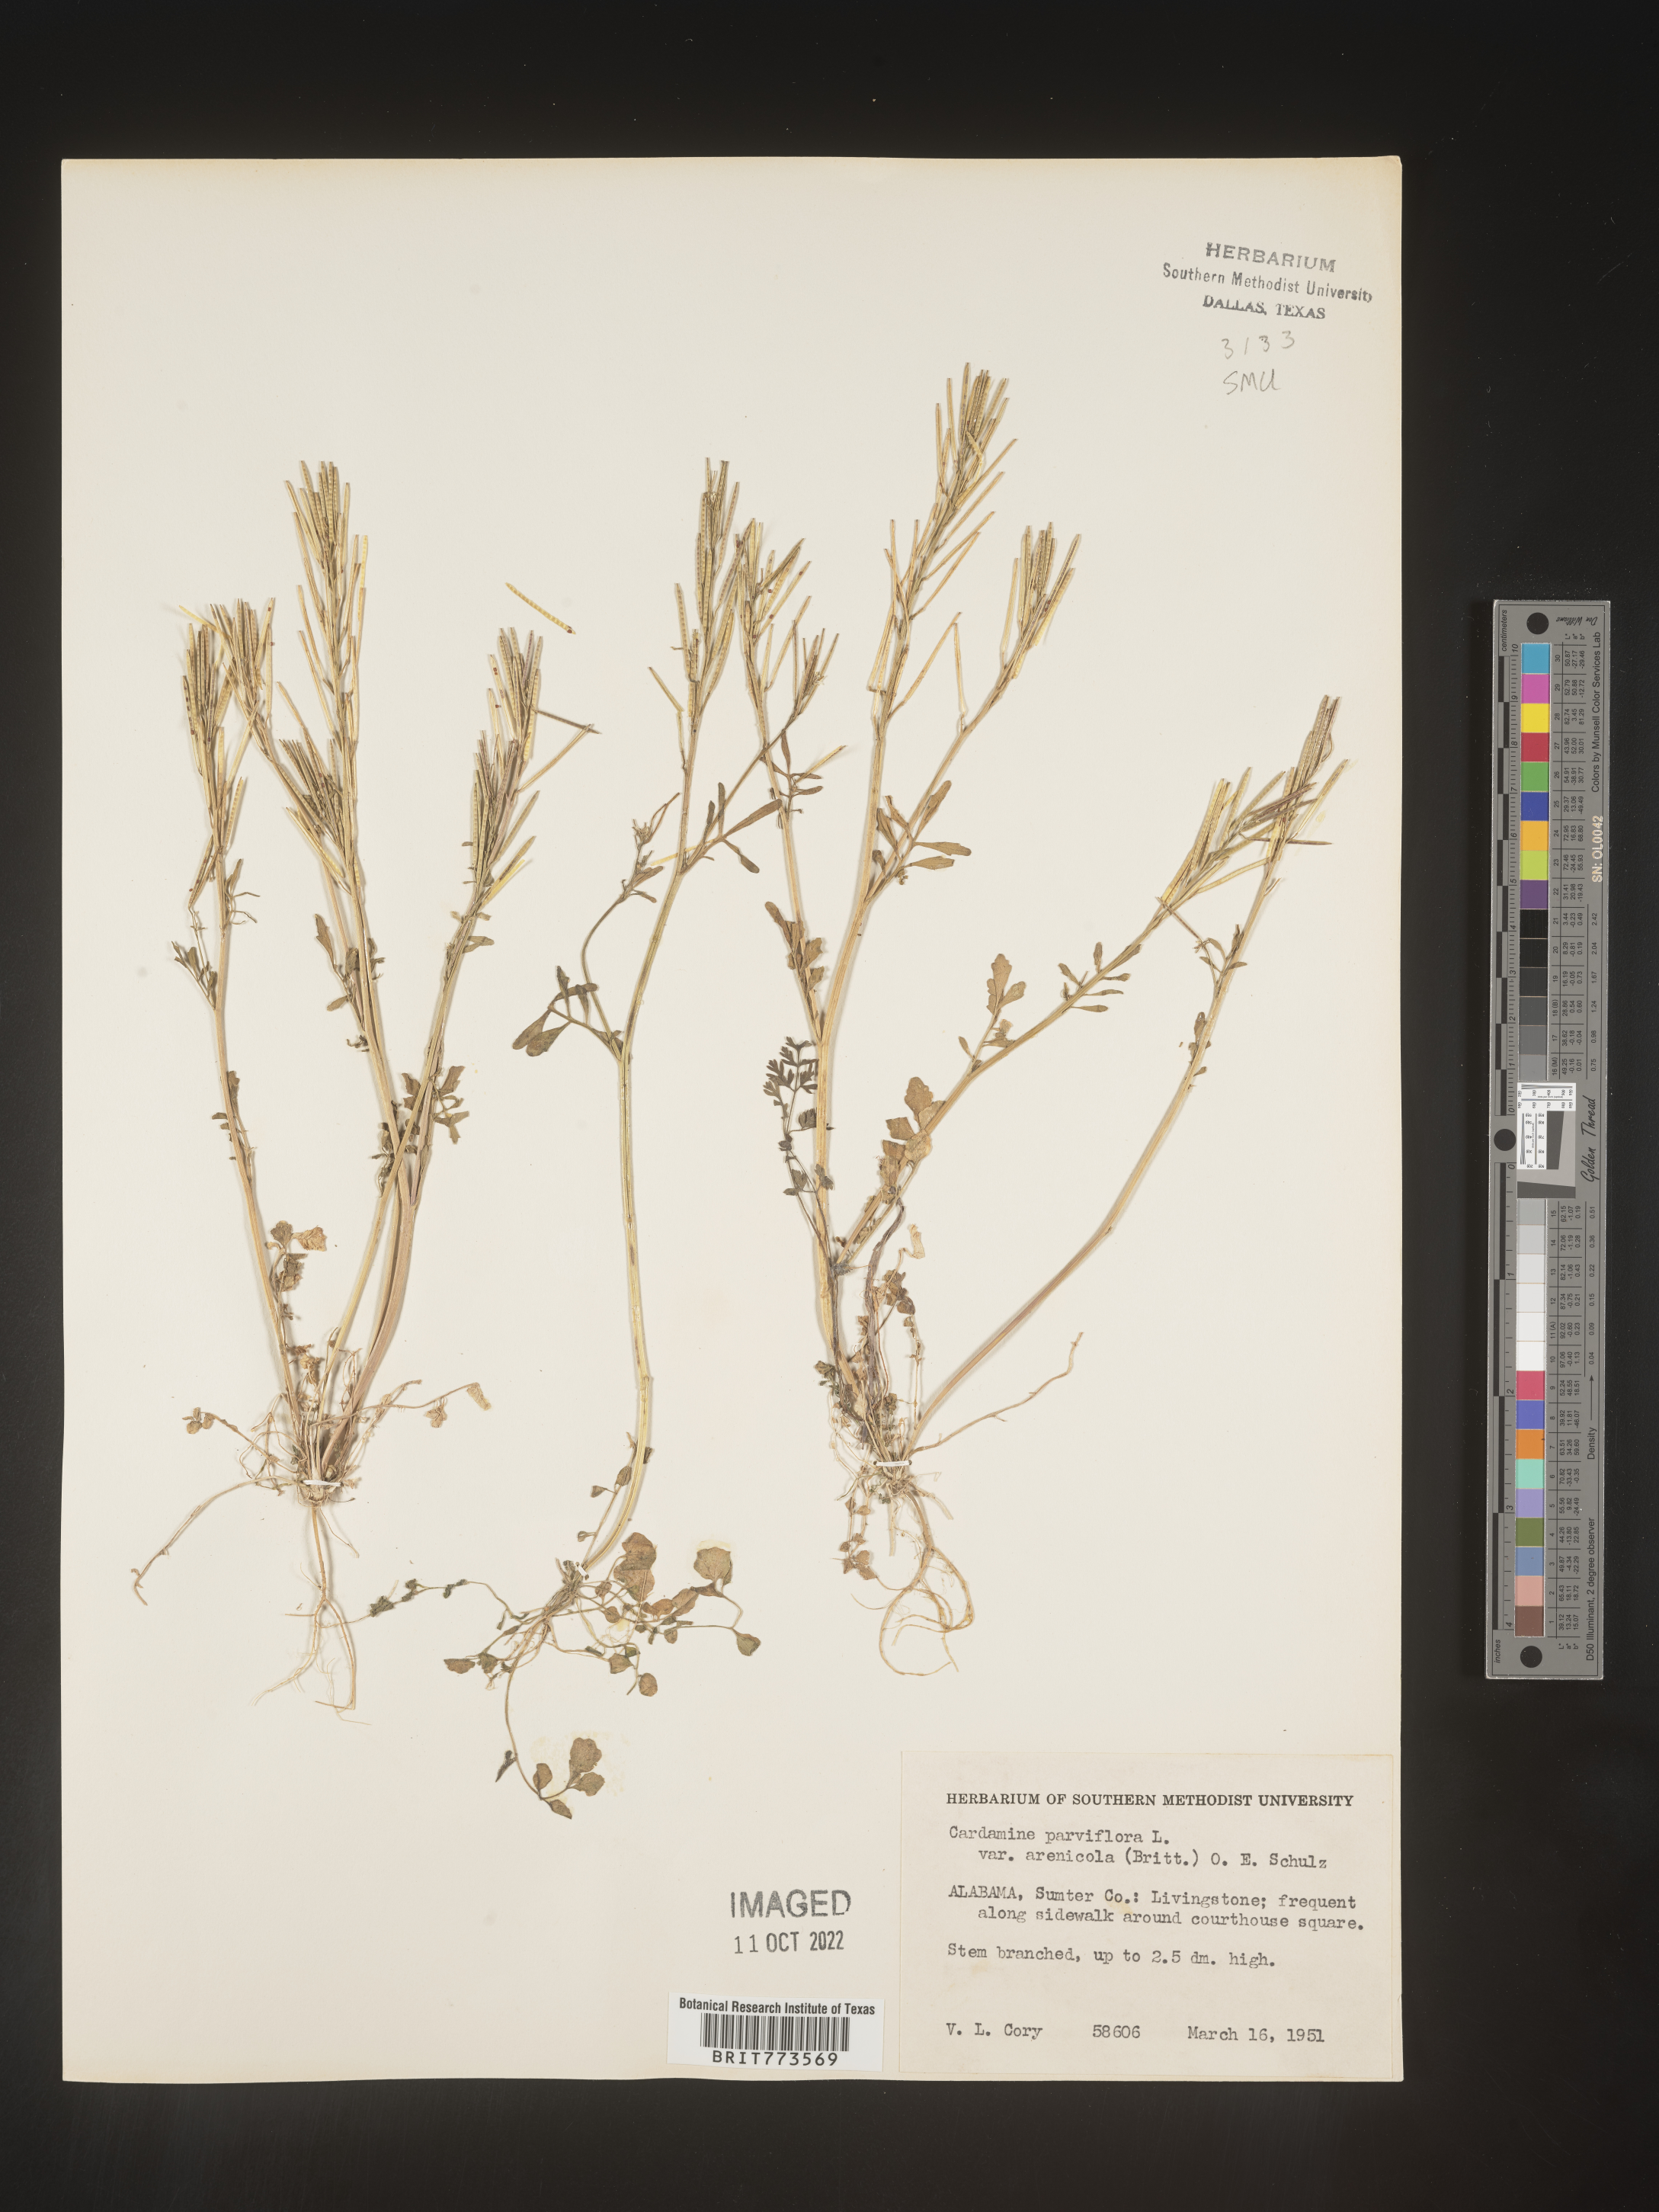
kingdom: Plantae
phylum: Tracheophyta
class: Magnoliopsida
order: Brassicales
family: Brassicaceae
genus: Cardamine
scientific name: Cardamine parviflora
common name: Sand bittercress
